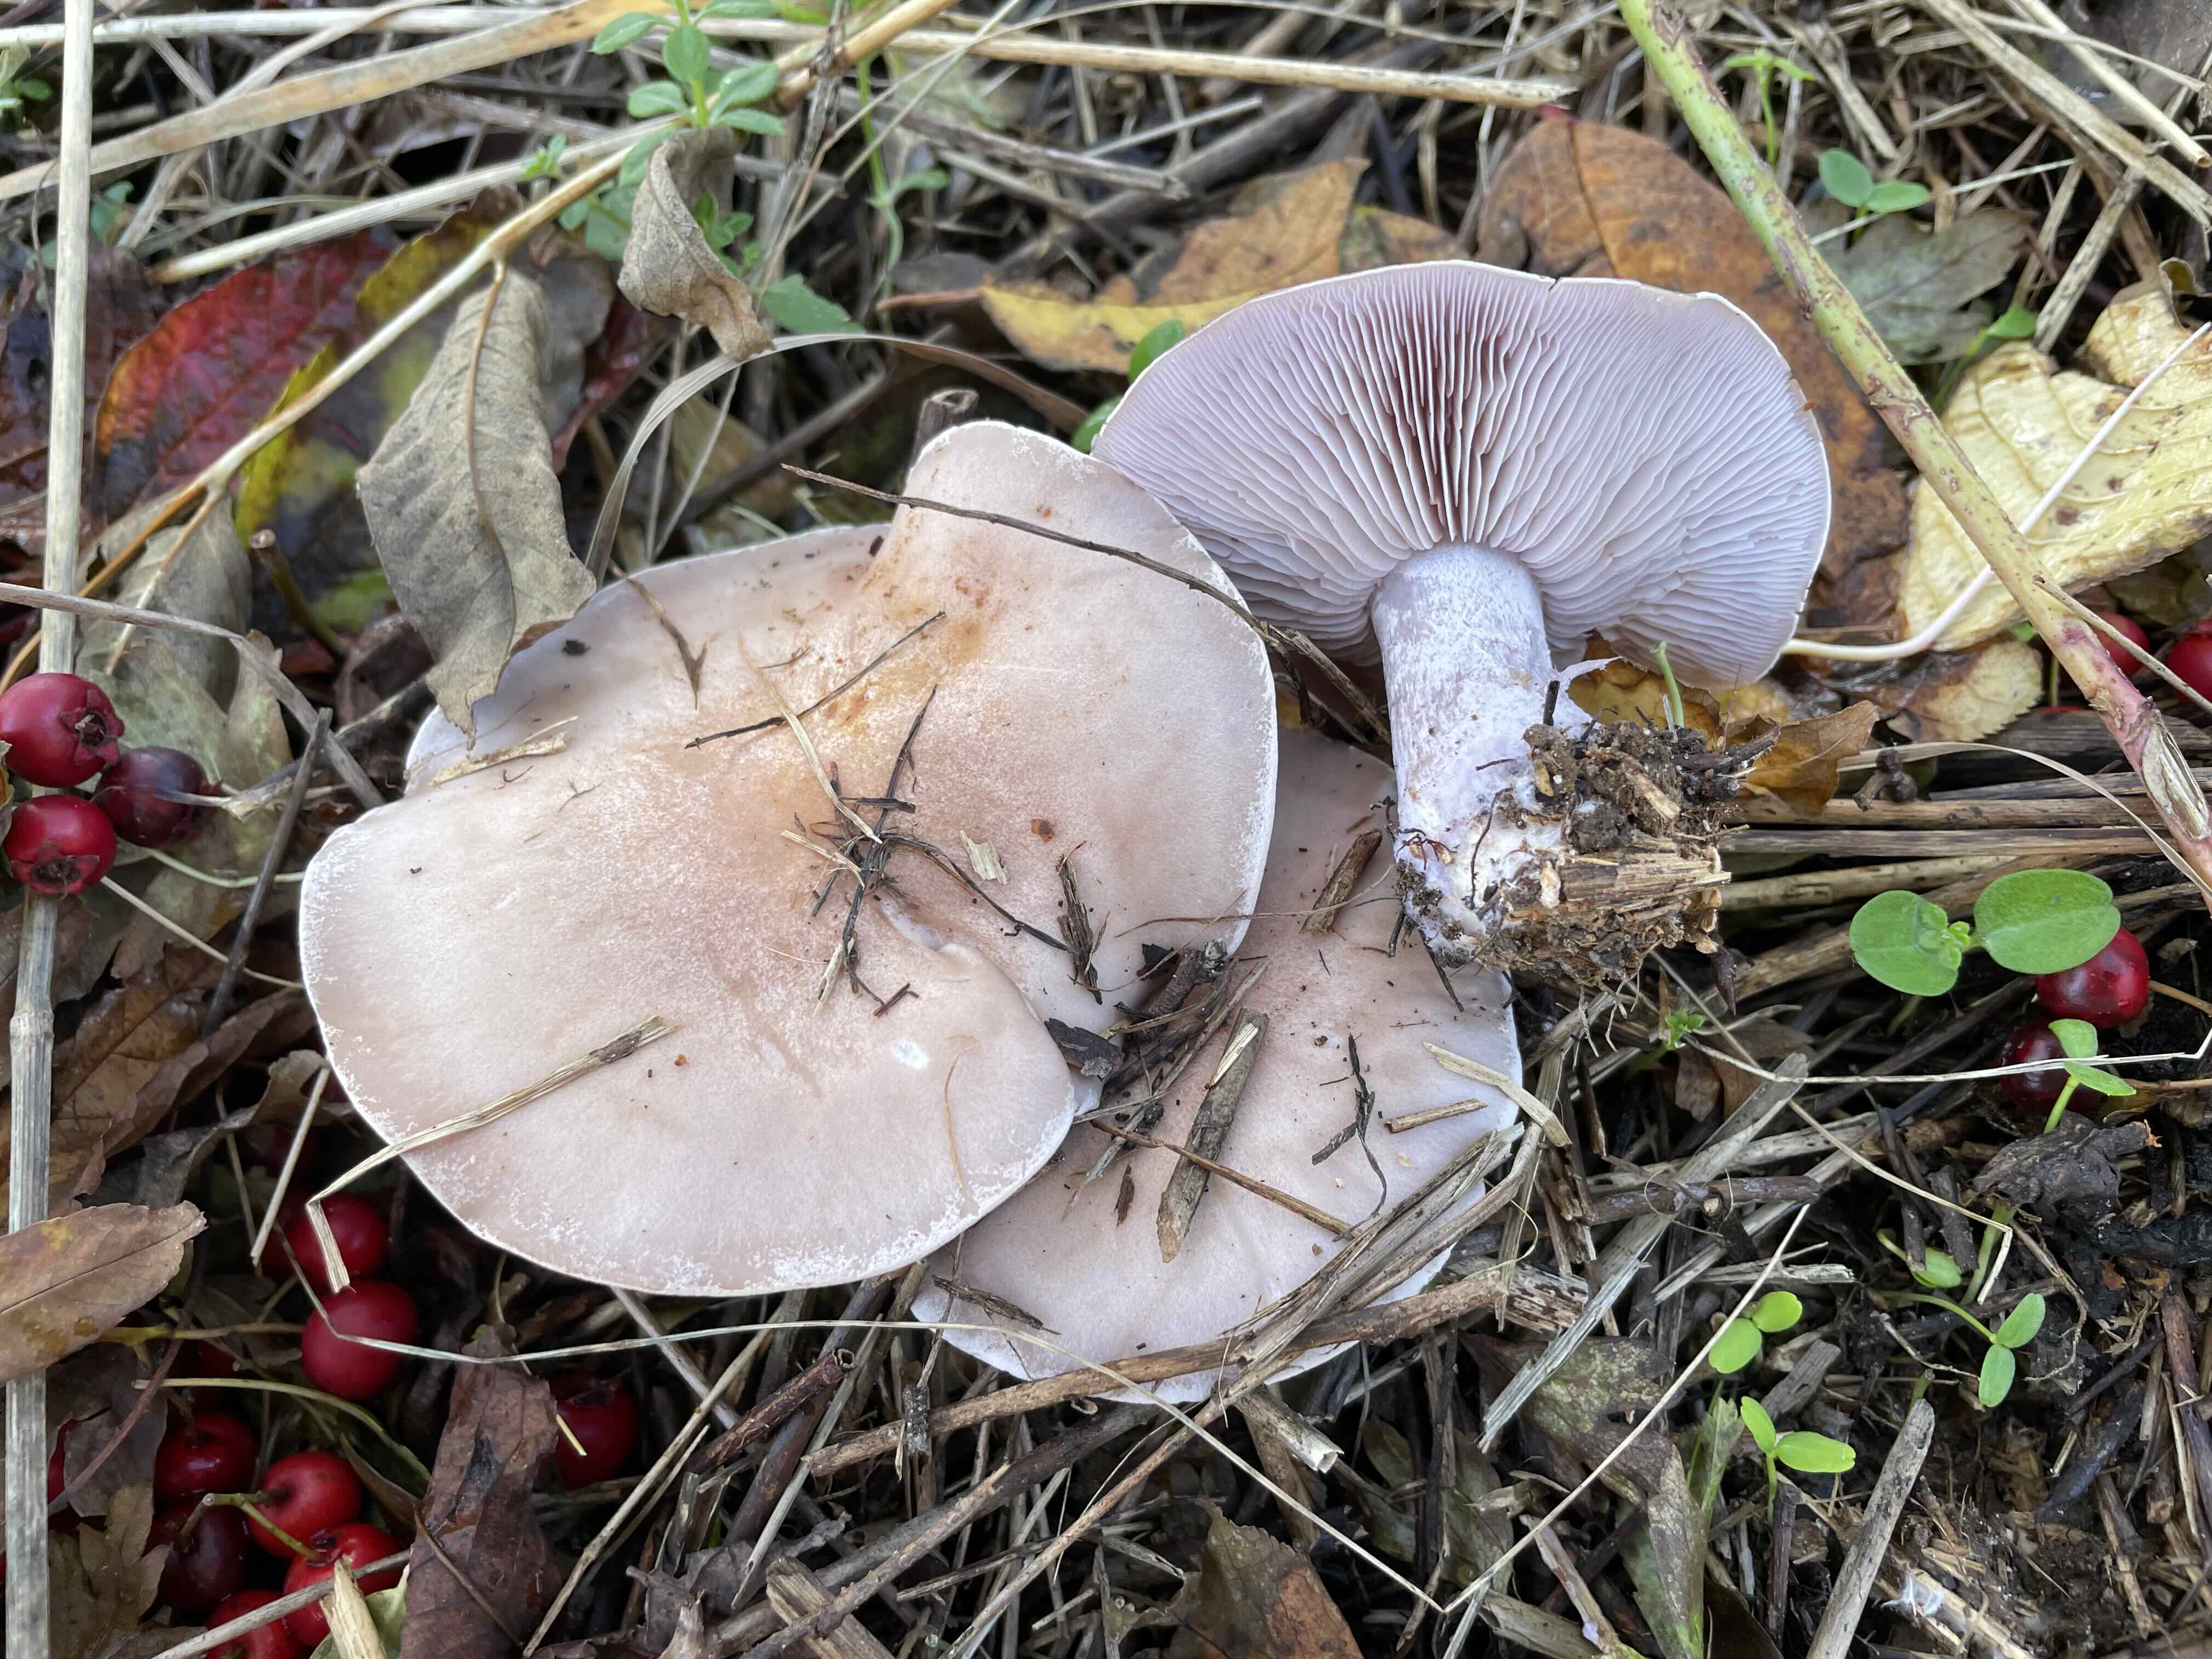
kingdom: Fungi
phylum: Basidiomycota
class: Agaricomycetes
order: Agaricales
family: Tricholomataceae
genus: Lepista
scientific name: Lepista nuda
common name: violet hekseringshat
